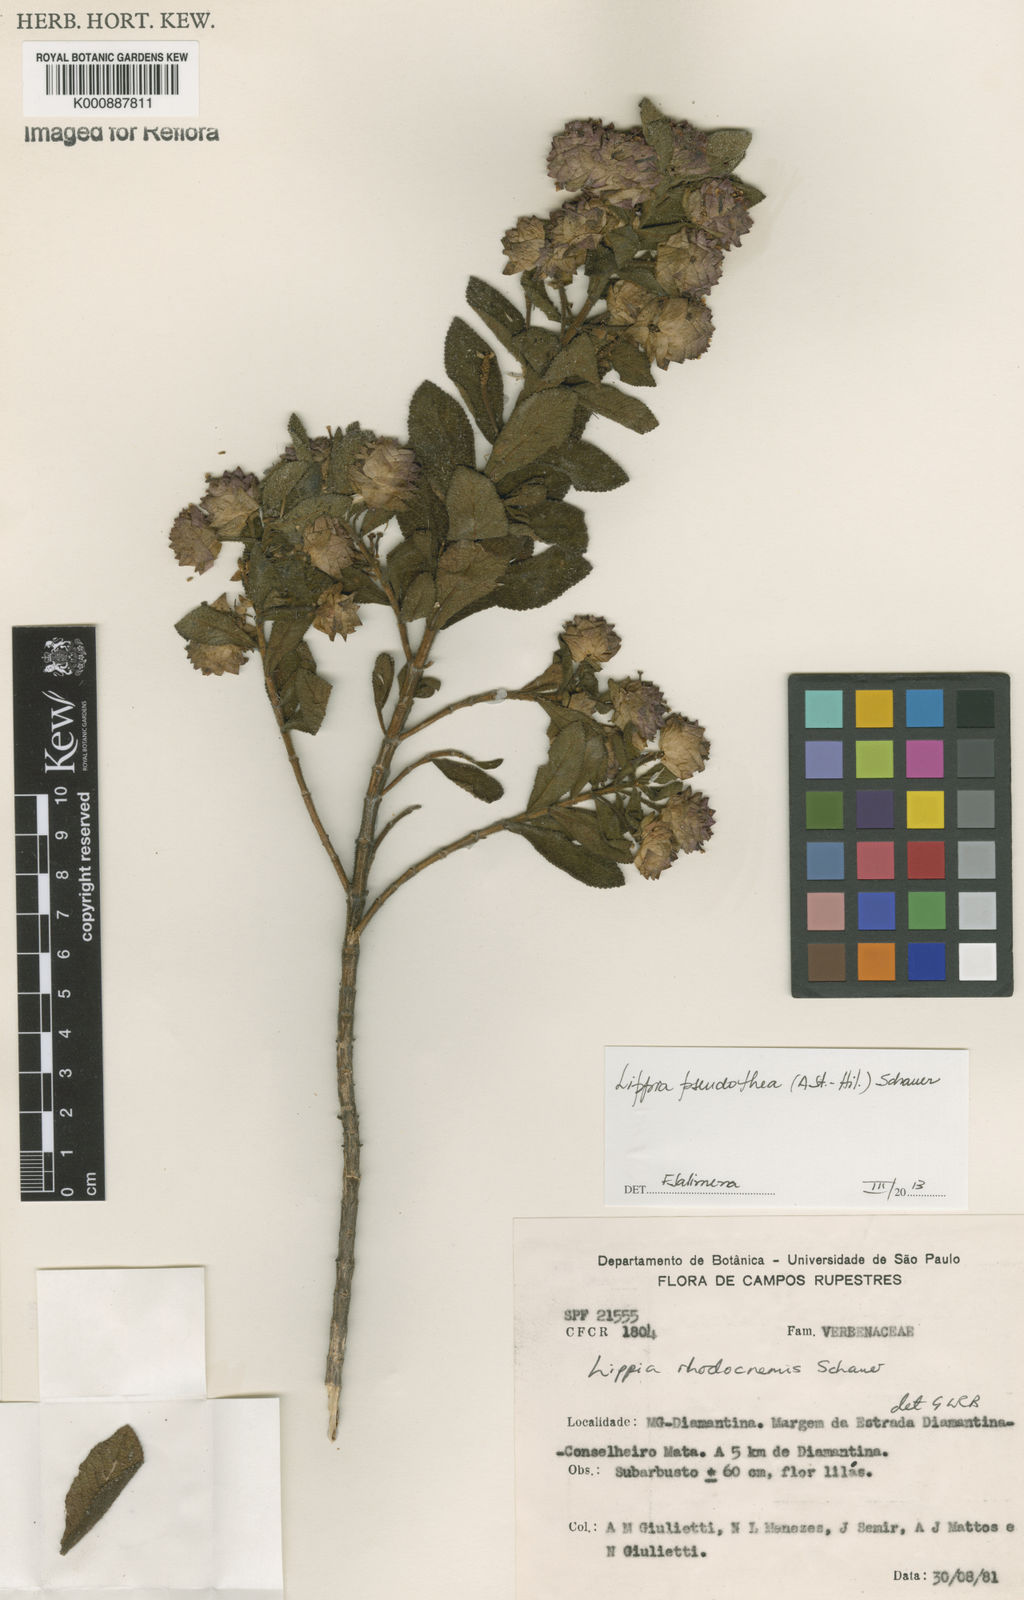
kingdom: Plantae
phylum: Tracheophyta
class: Magnoliopsida
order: Lamiales
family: Verbenaceae
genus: Lippia
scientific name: Lippia
